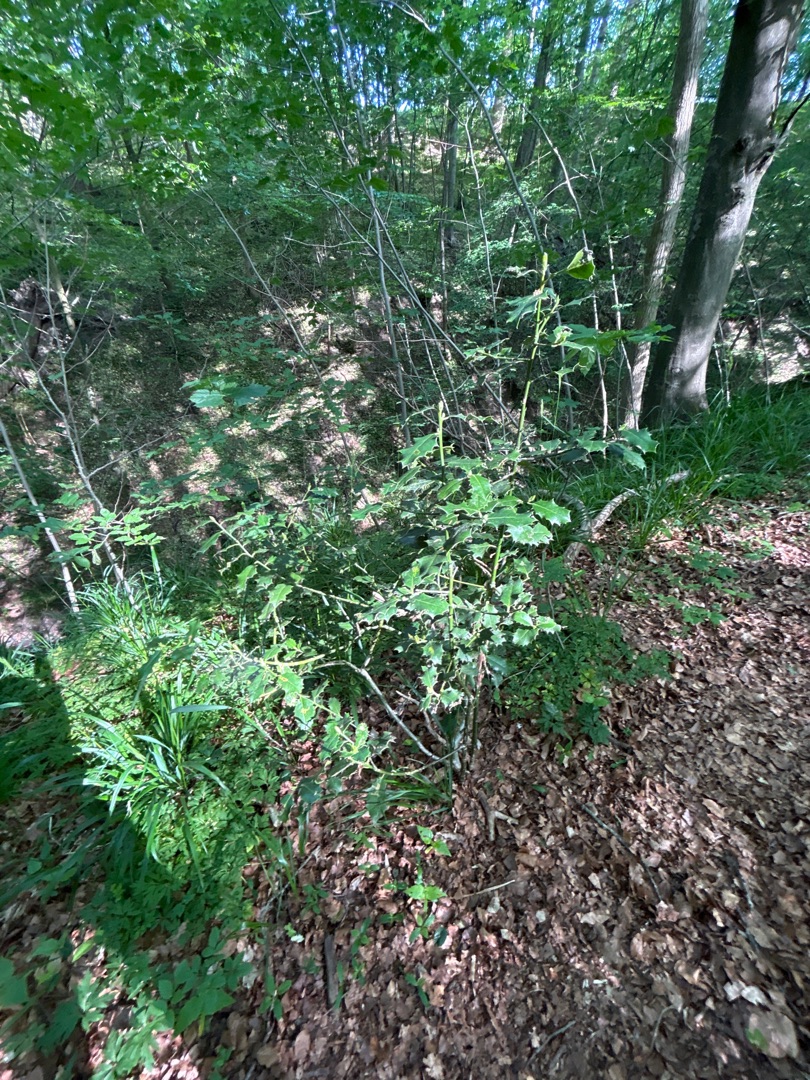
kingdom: Plantae
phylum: Tracheophyta
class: Magnoliopsida
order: Aquifoliales
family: Aquifoliaceae
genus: Ilex
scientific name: Ilex aquifolium
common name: Kristtorn
